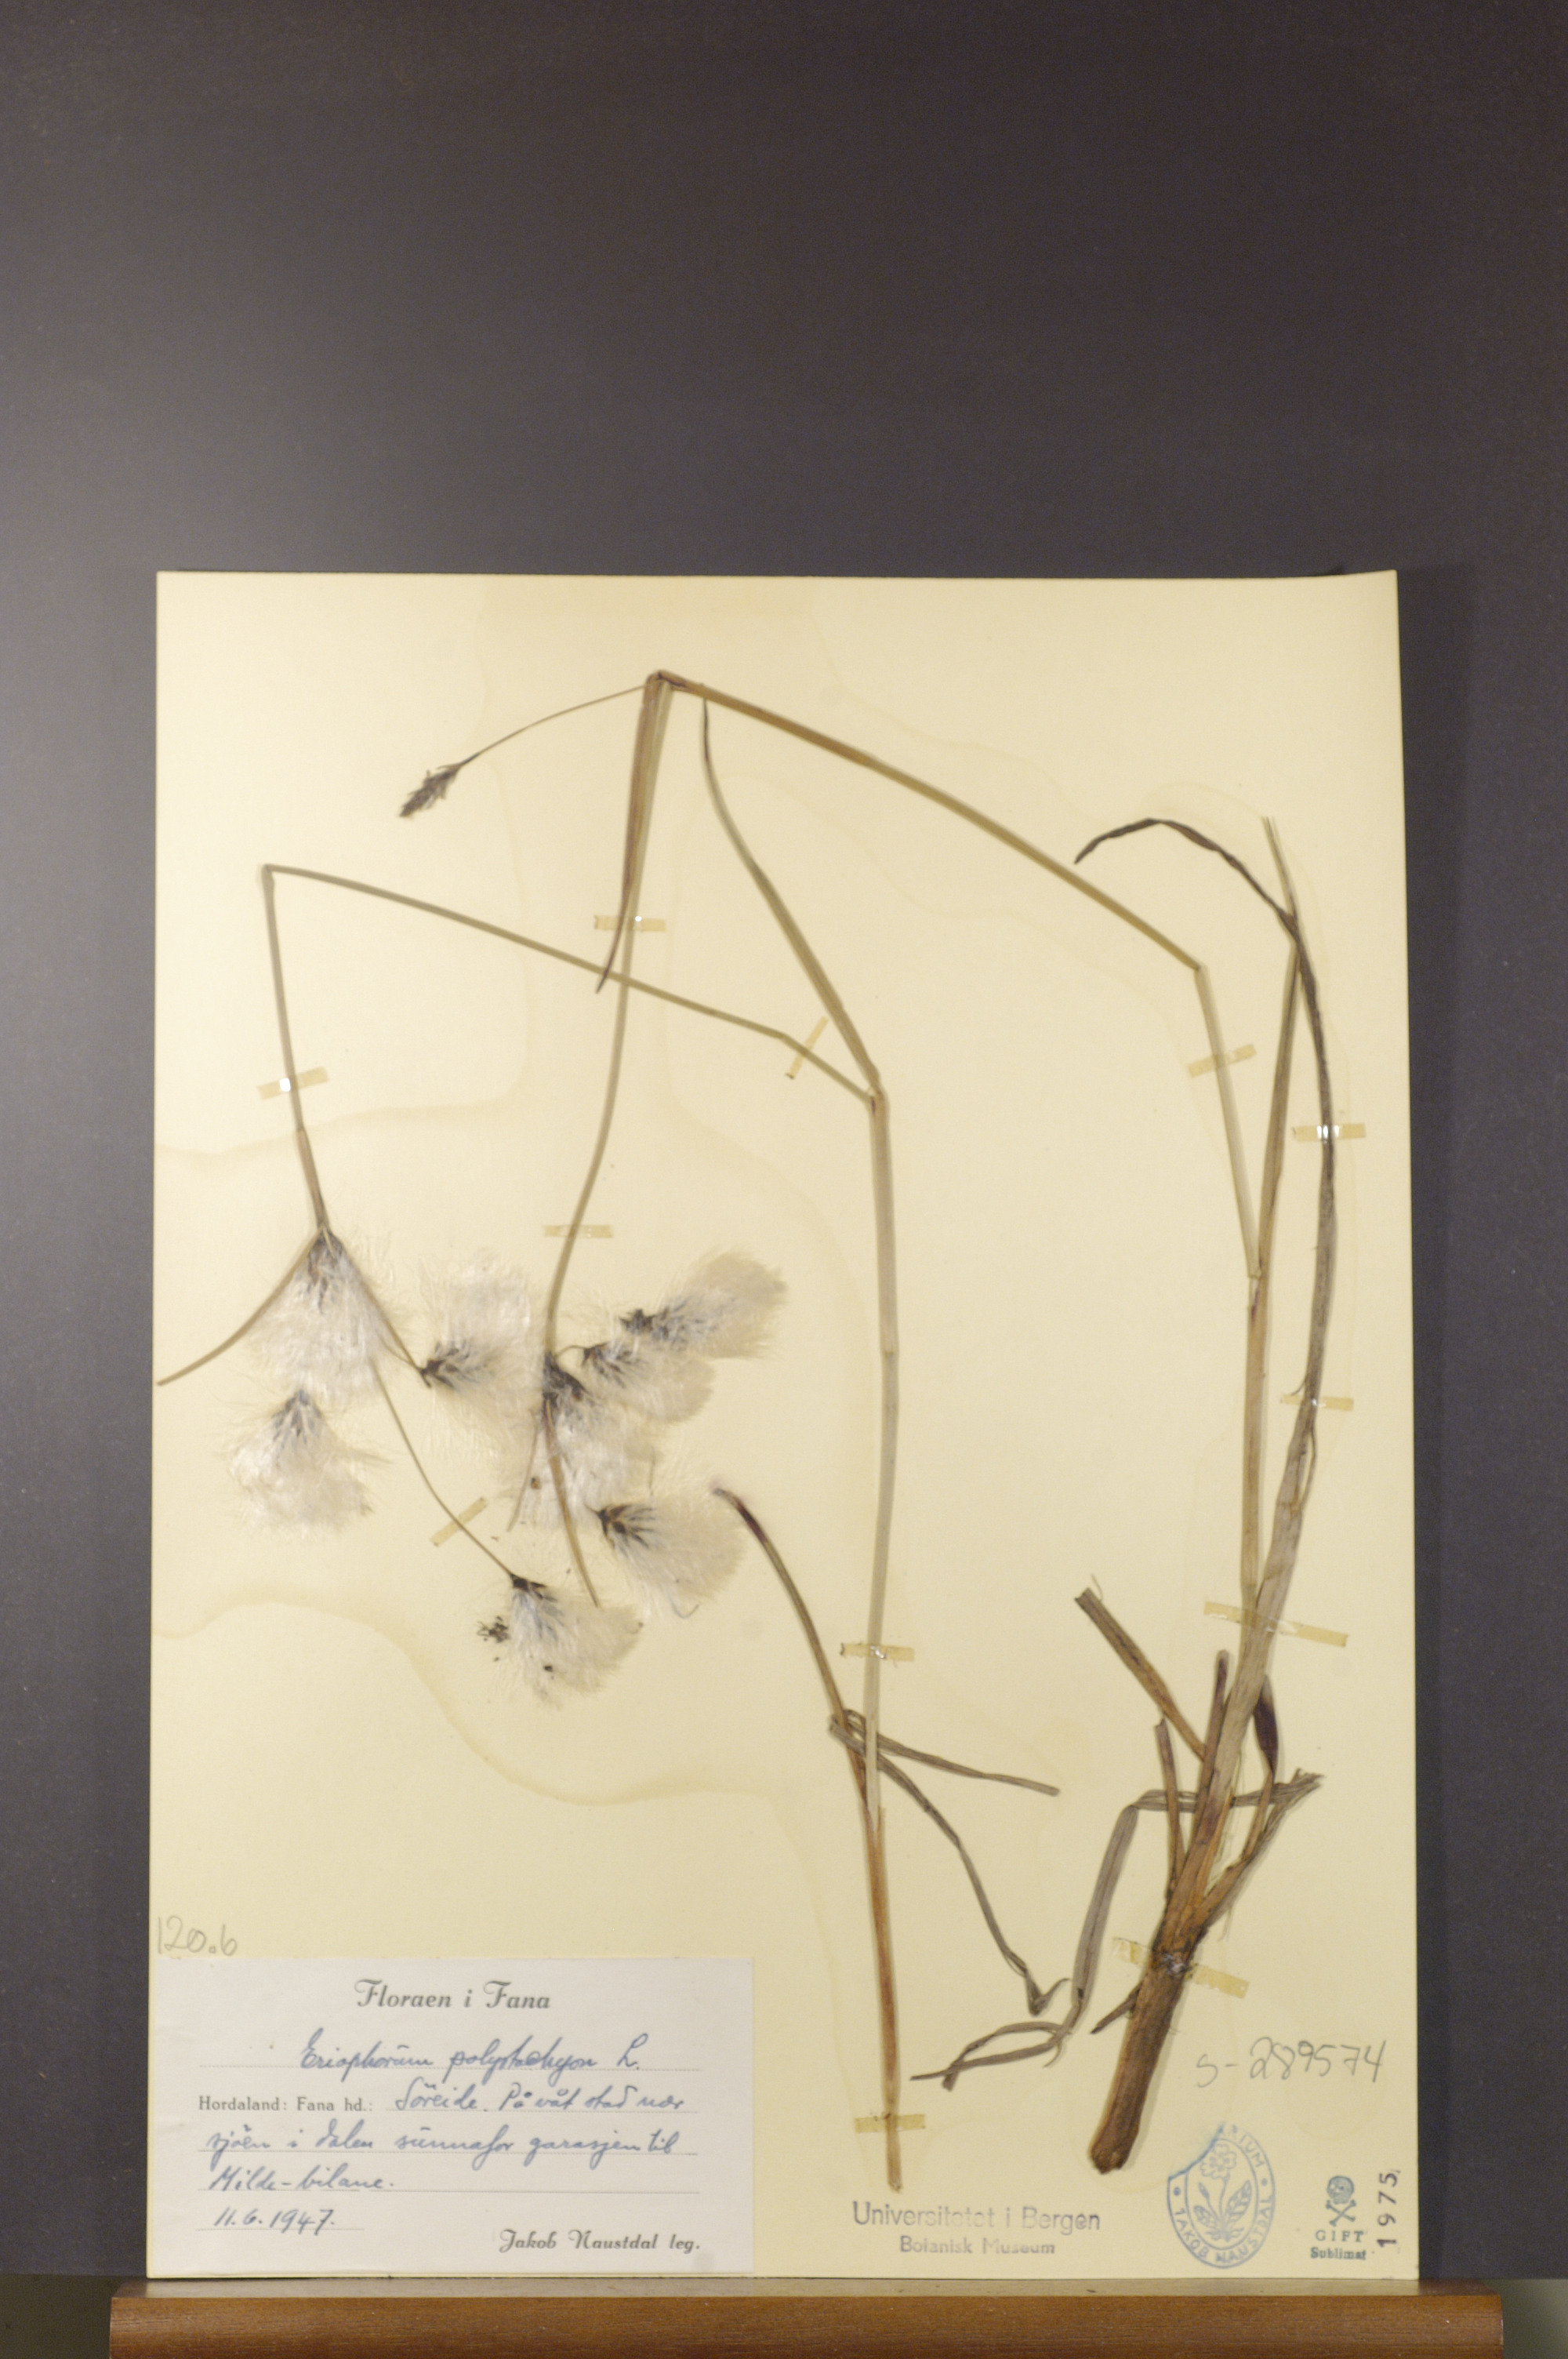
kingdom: Plantae
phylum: Tracheophyta
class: Liliopsida
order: Poales
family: Cyperaceae
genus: Eriophorum
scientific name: Eriophorum angustifolium
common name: Common cottongrass
